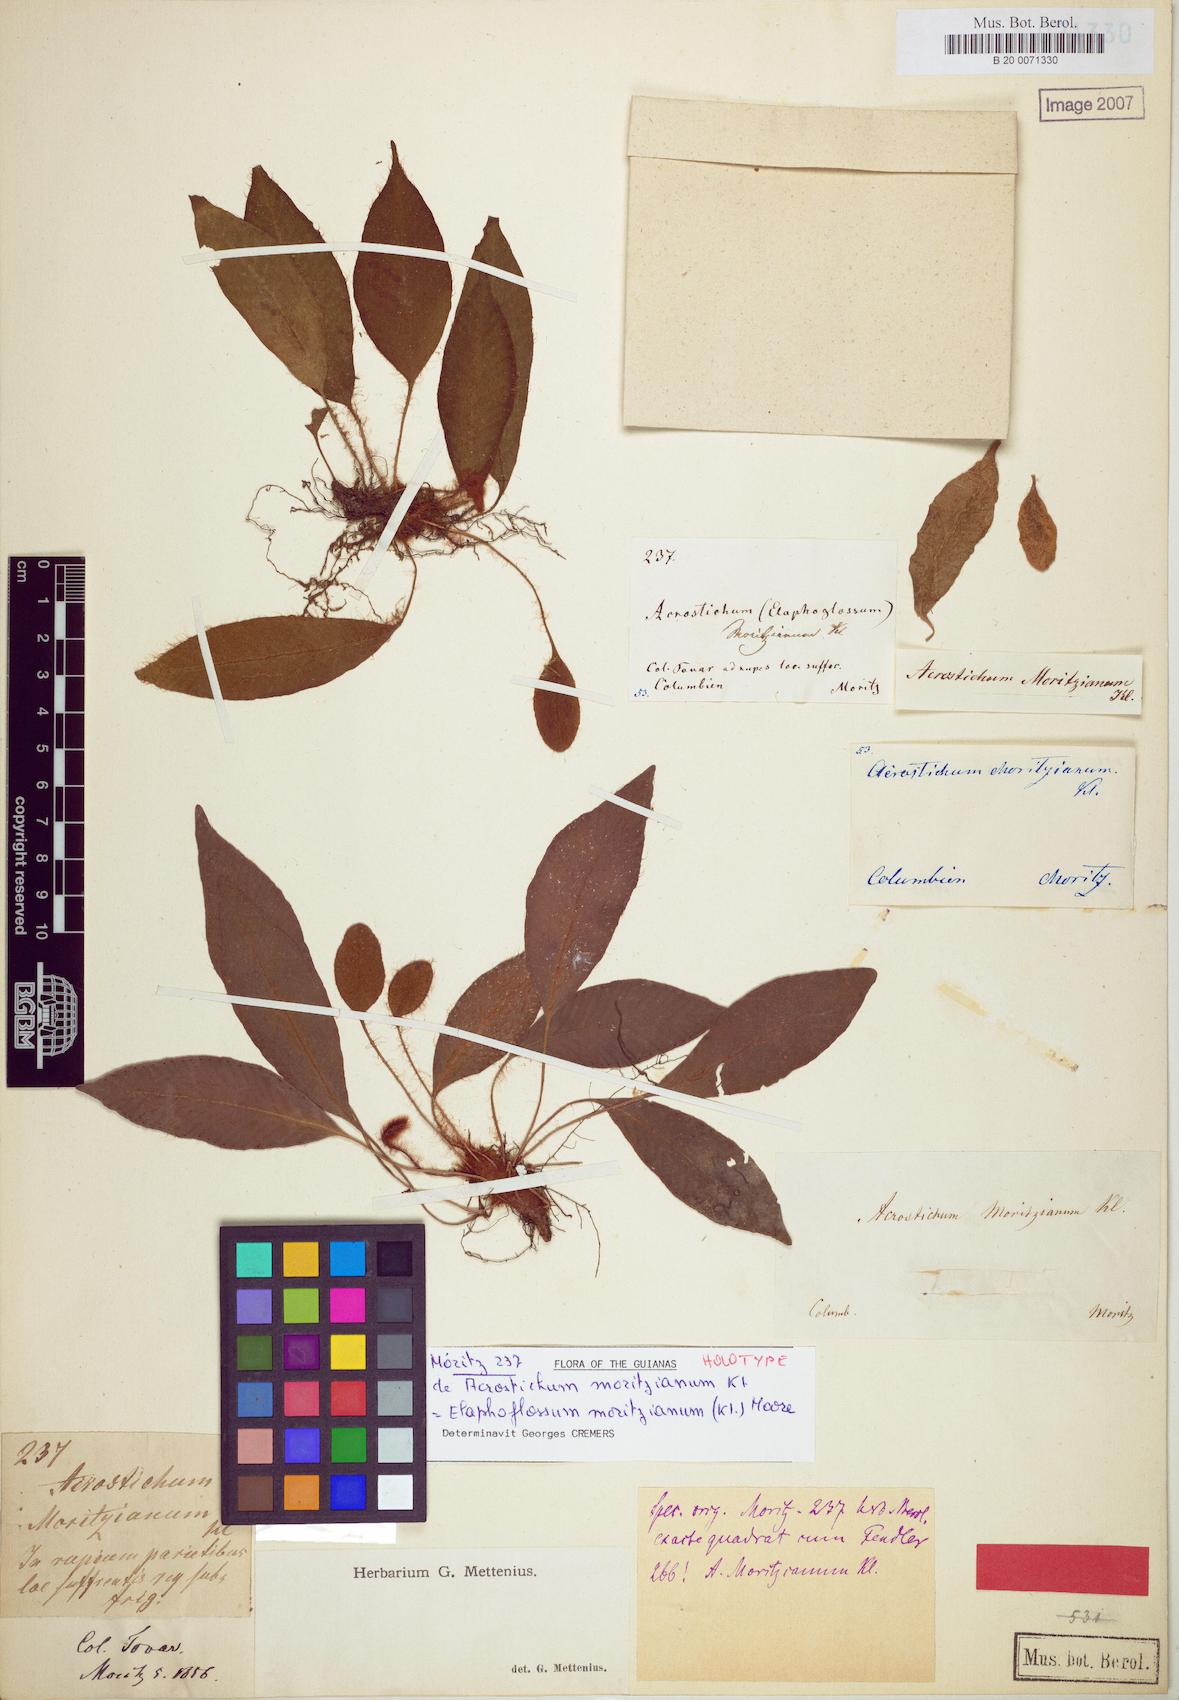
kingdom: Plantae
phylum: Tracheophyta
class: Polypodiopsida
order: Polypodiales
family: Dryopteridaceae
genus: Elaphoglossum
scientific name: Elaphoglossum moritzianum
